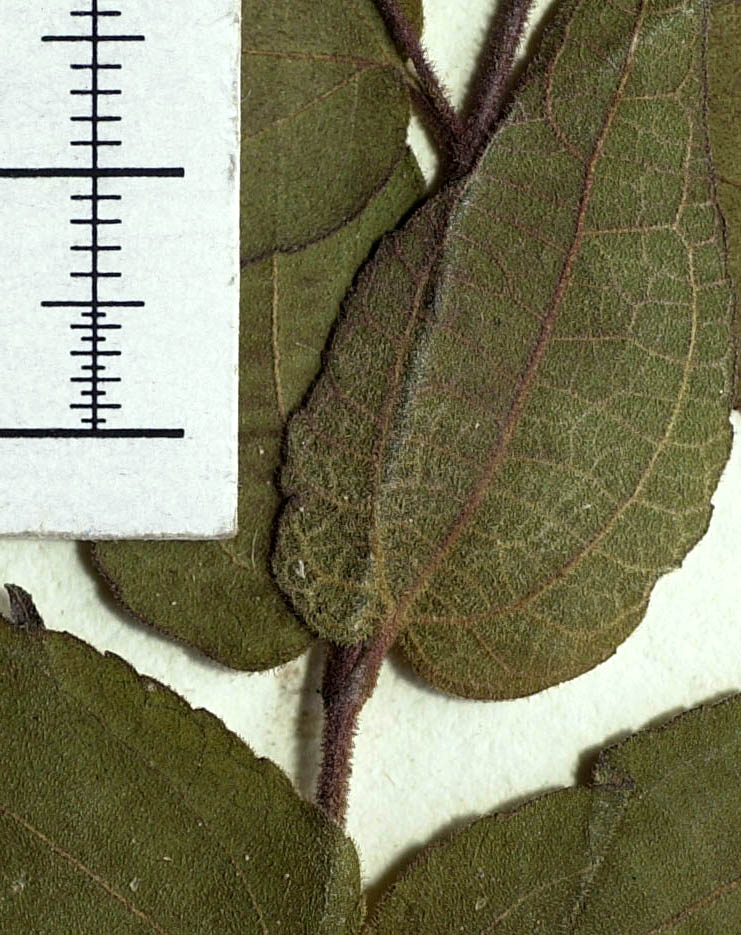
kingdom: Plantae
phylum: Tracheophyta
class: Magnoliopsida
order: Asterales
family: Asteraceae
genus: Koanophyllon
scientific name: Koanophyllon longifolia
